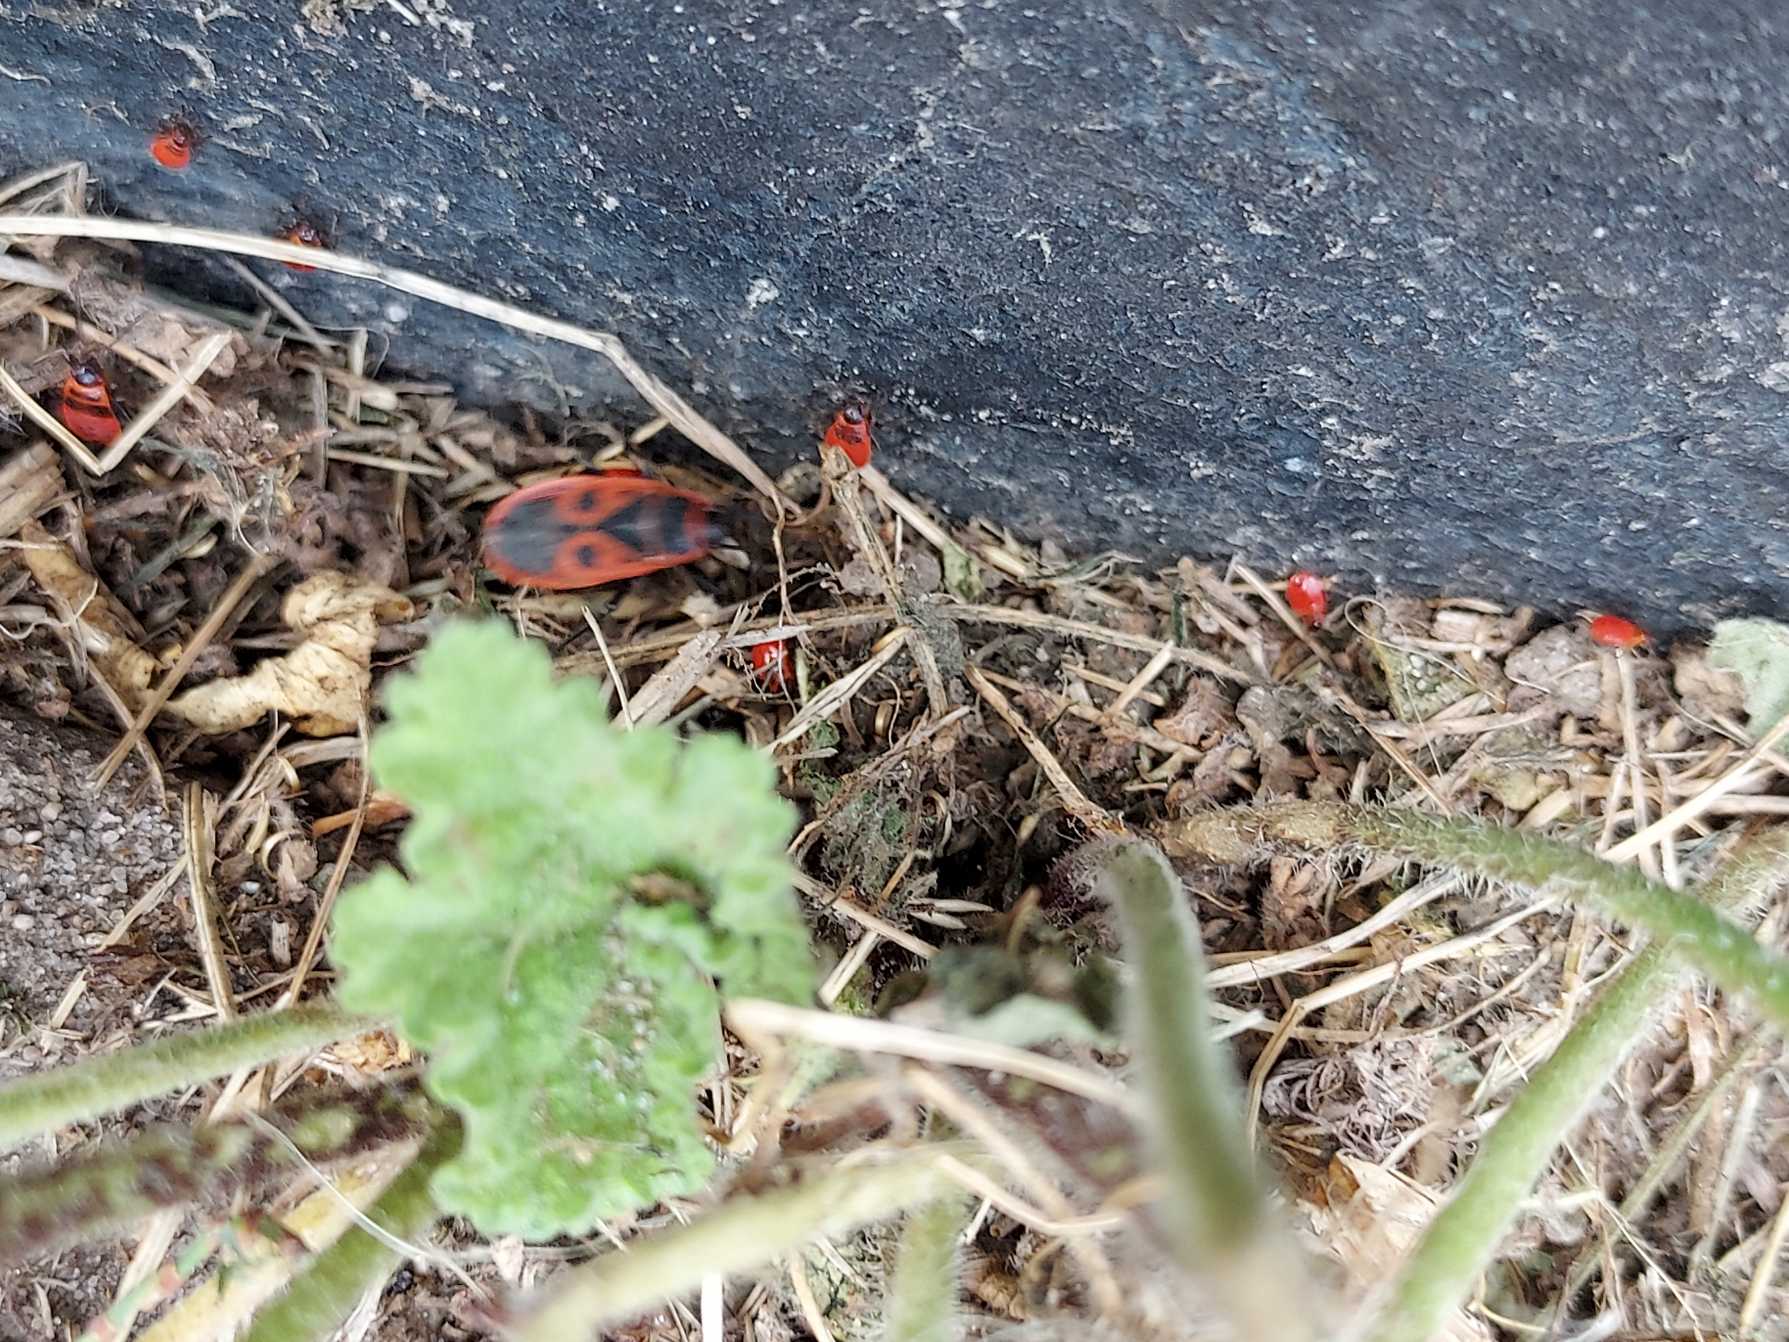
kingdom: Animalia
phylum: Arthropoda
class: Insecta
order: Hemiptera
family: Pyrrhocoridae
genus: Pyrrhocoris
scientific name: Pyrrhocoris apterus
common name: Ildtæge
